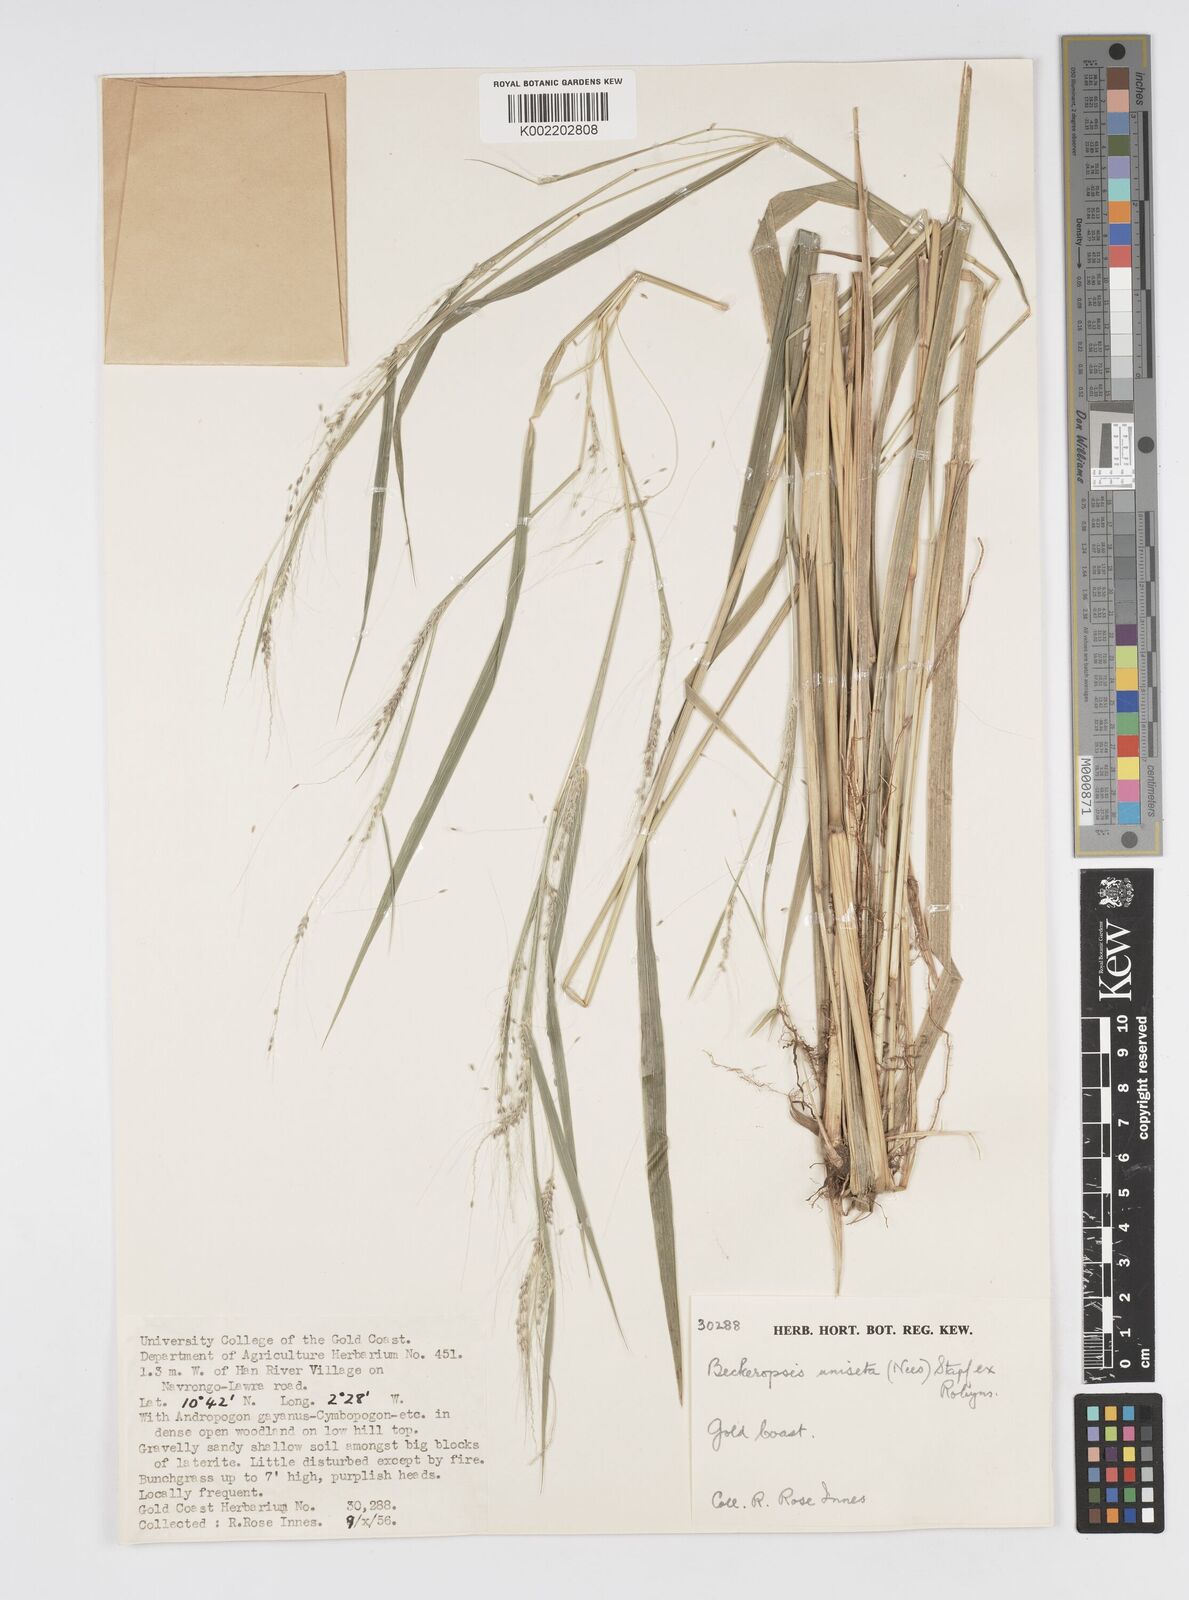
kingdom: Plantae
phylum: Tracheophyta
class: Liliopsida
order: Poales
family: Poaceae
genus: Cenchrus
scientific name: Cenchrus unisetus
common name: Natal grass
